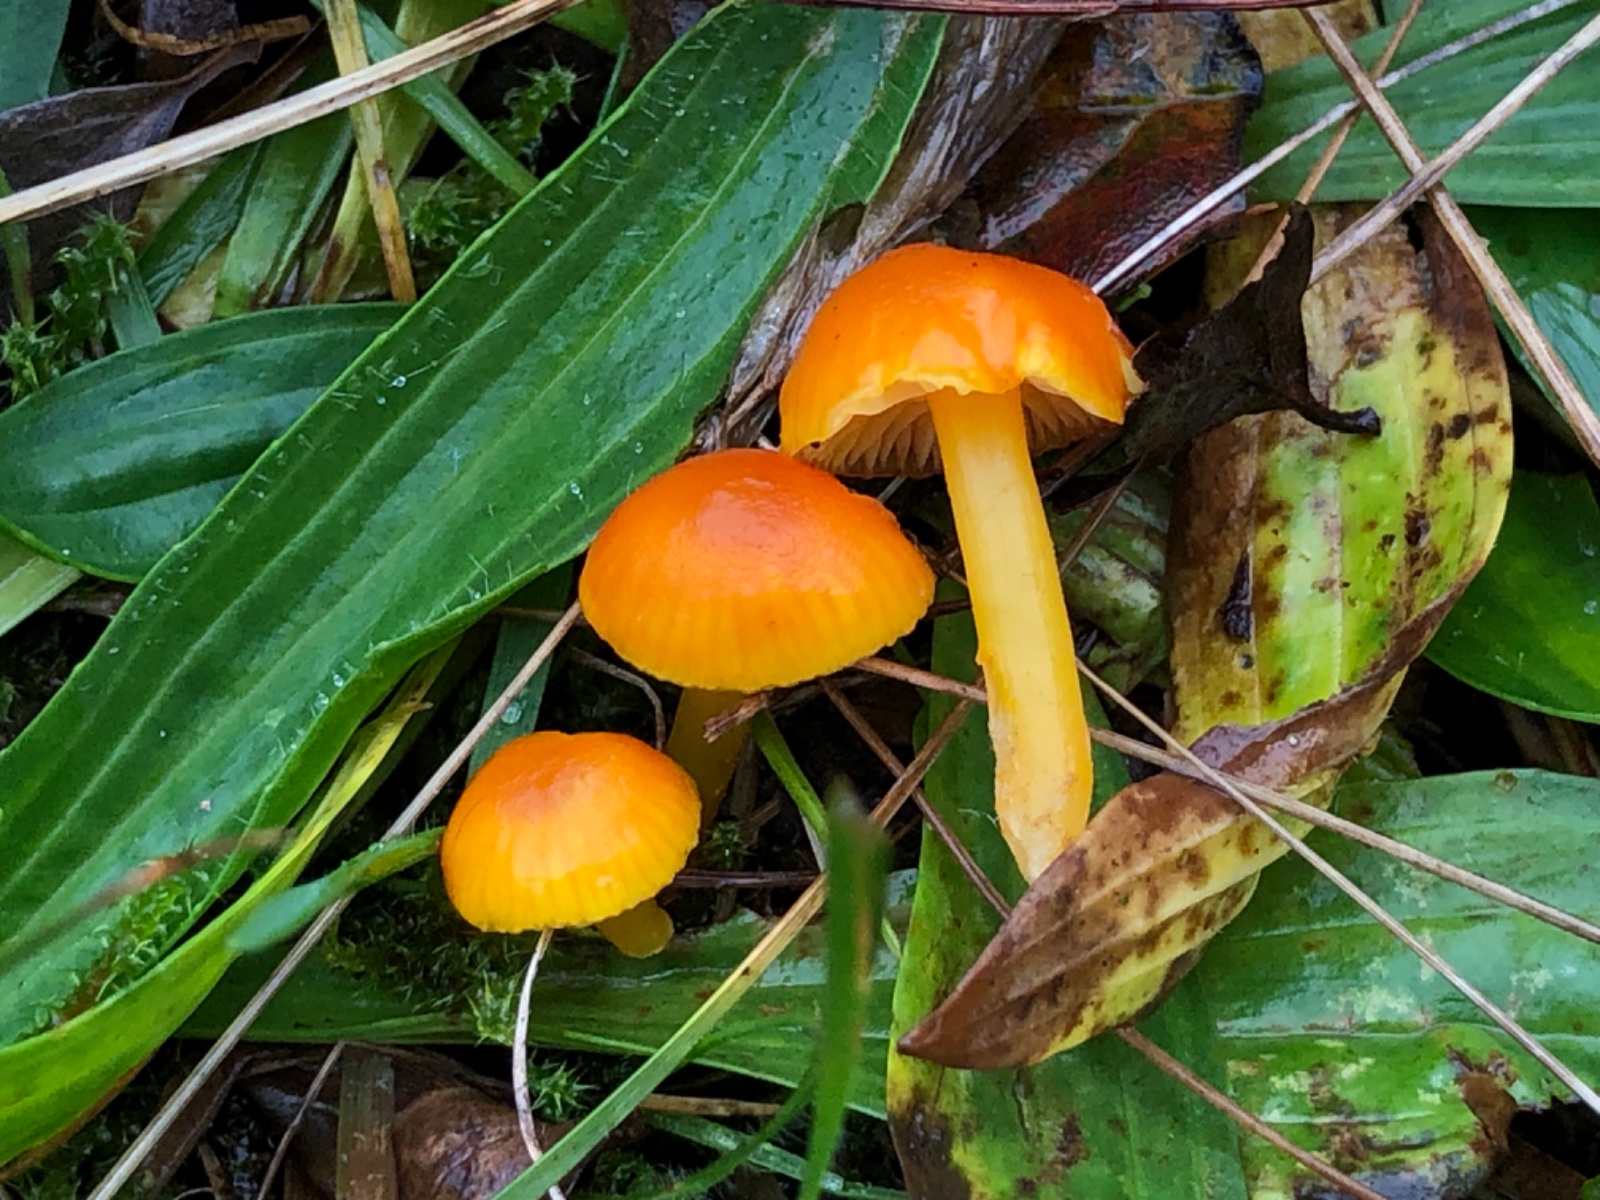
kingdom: Fungi
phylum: Basidiomycota
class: Agaricomycetes
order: Agaricales
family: Hygrophoraceae
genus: Hygrocybe
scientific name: Hygrocybe
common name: vokshat
